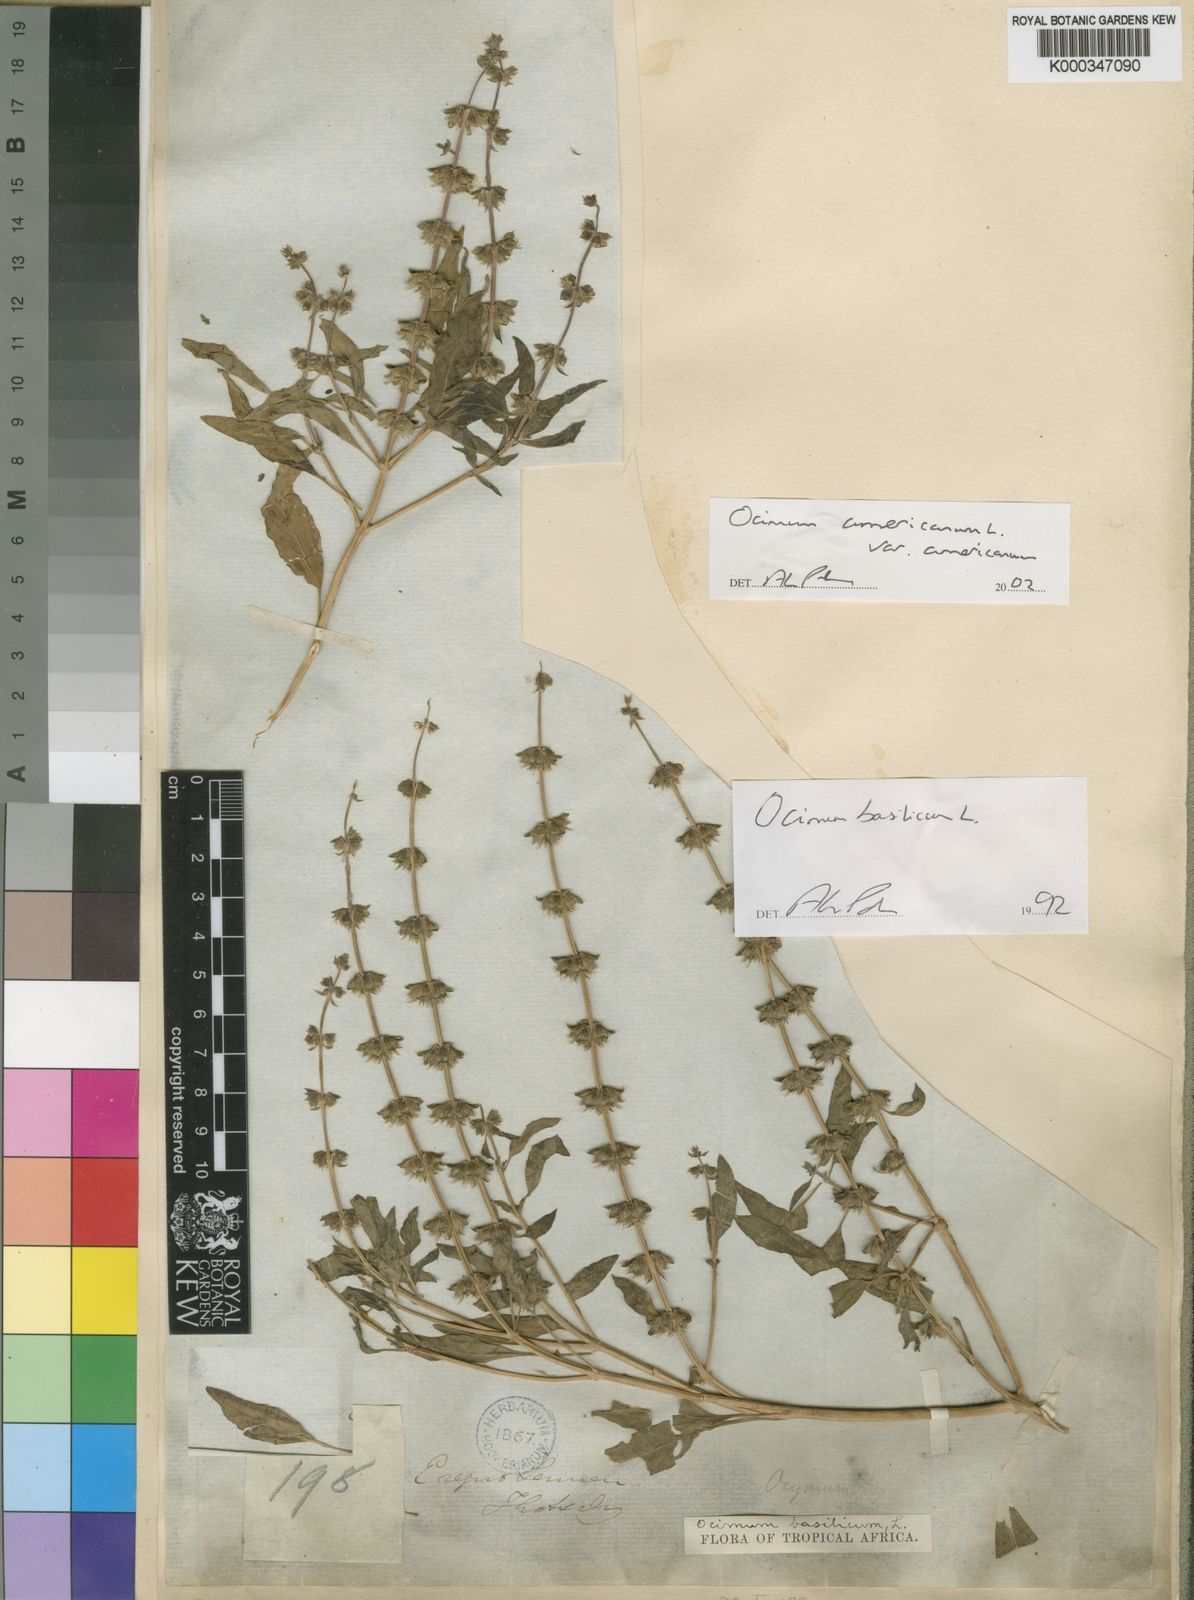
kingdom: Plantae
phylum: Tracheophyta
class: Magnoliopsida
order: Lamiales
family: Lamiaceae
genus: Ocimum
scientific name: Ocimum americanum
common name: American basil
